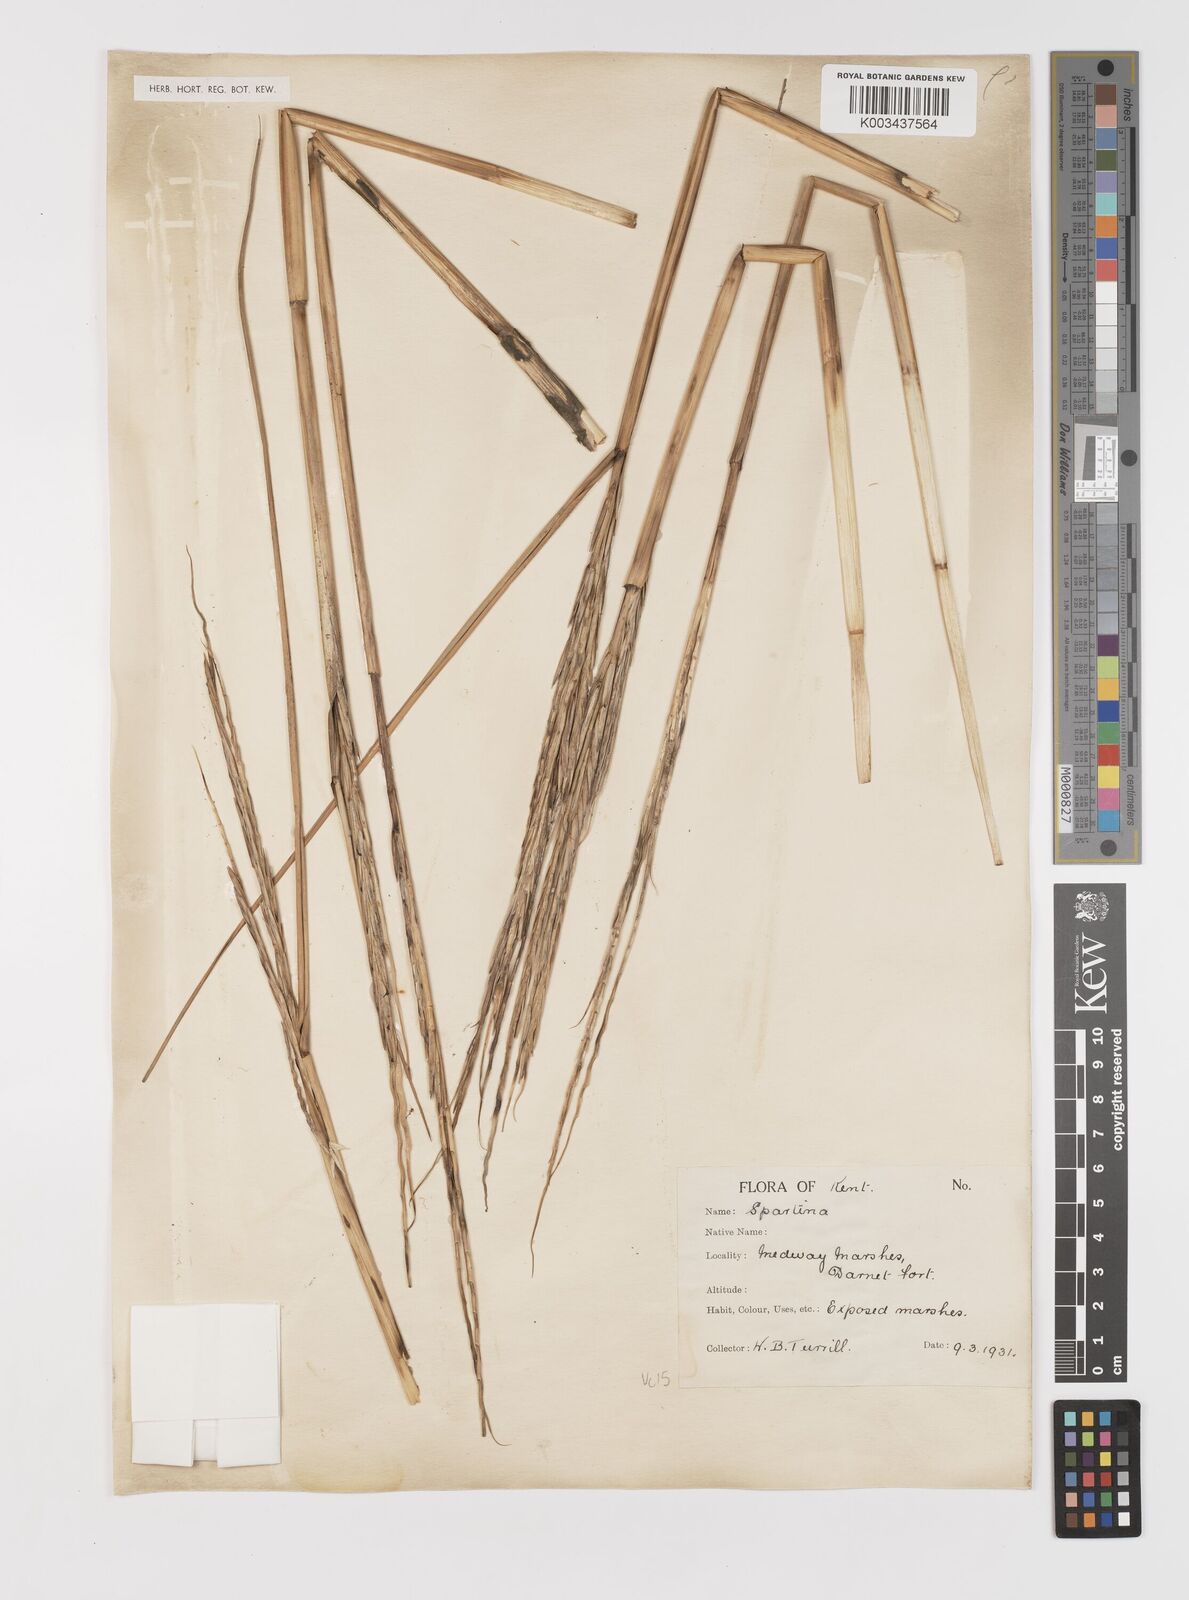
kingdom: Plantae
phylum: Tracheophyta
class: Liliopsida
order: Poales
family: Poaceae
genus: Sporobolus
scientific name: Sporobolus anglicus
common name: English cordgrass
